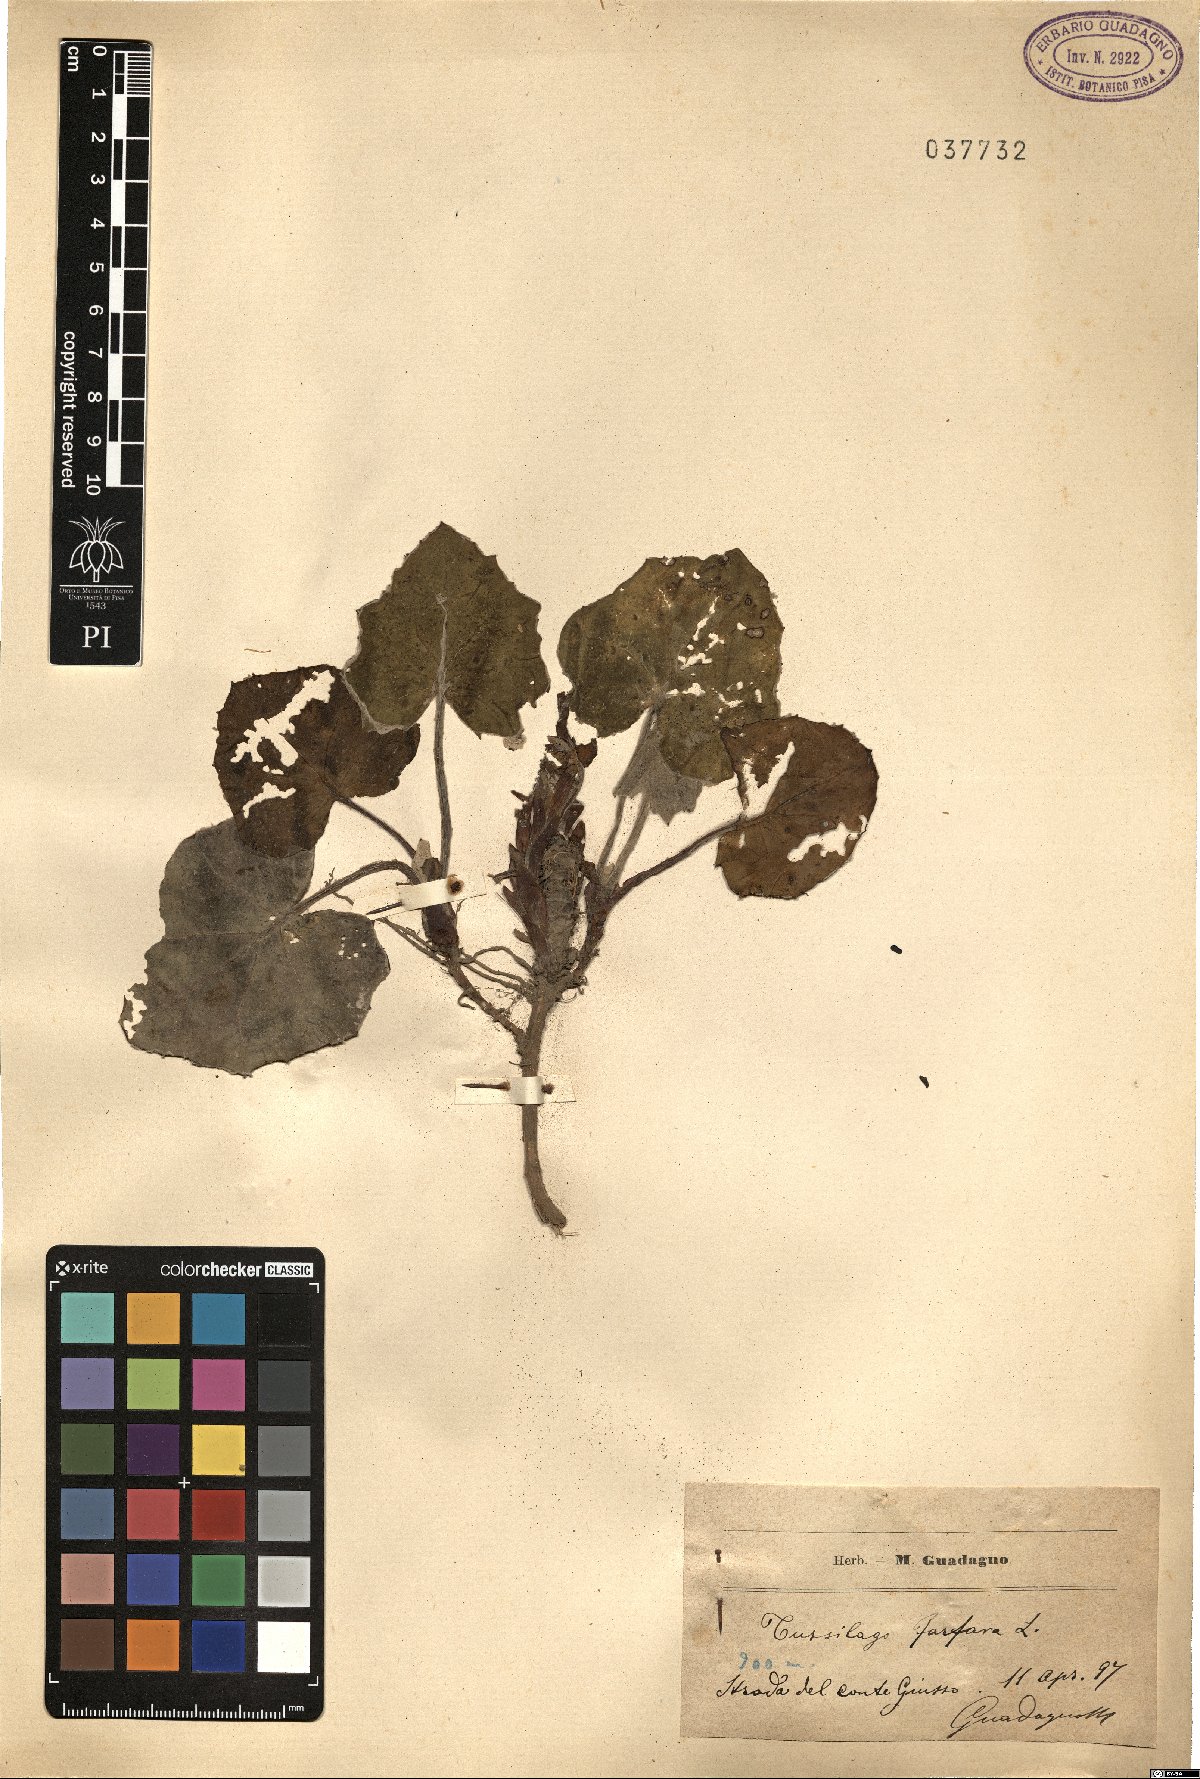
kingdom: Plantae
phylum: Tracheophyta
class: Magnoliopsida
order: Asterales
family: Asteraceae
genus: Tussilago
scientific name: Tussilago farfara
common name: Coltsfoot
